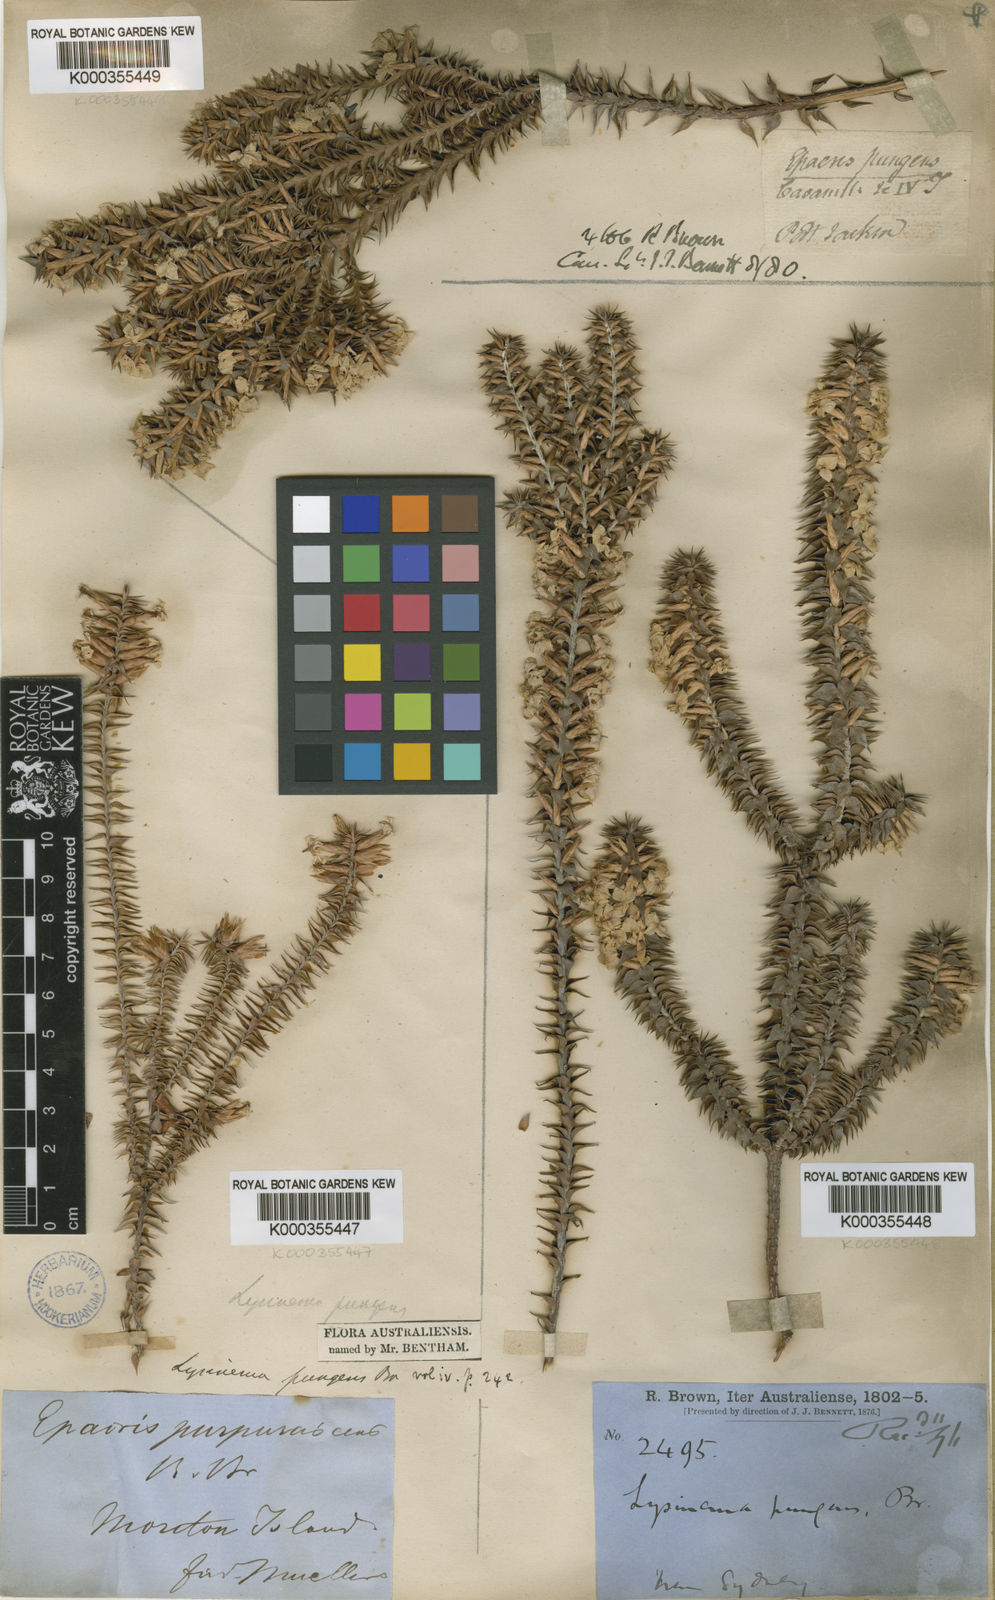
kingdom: Plantae
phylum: Tracheophyta
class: Magnoliopsida
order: Ericales
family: Ericaceae
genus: Woollsia
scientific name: Woollsia pungens
